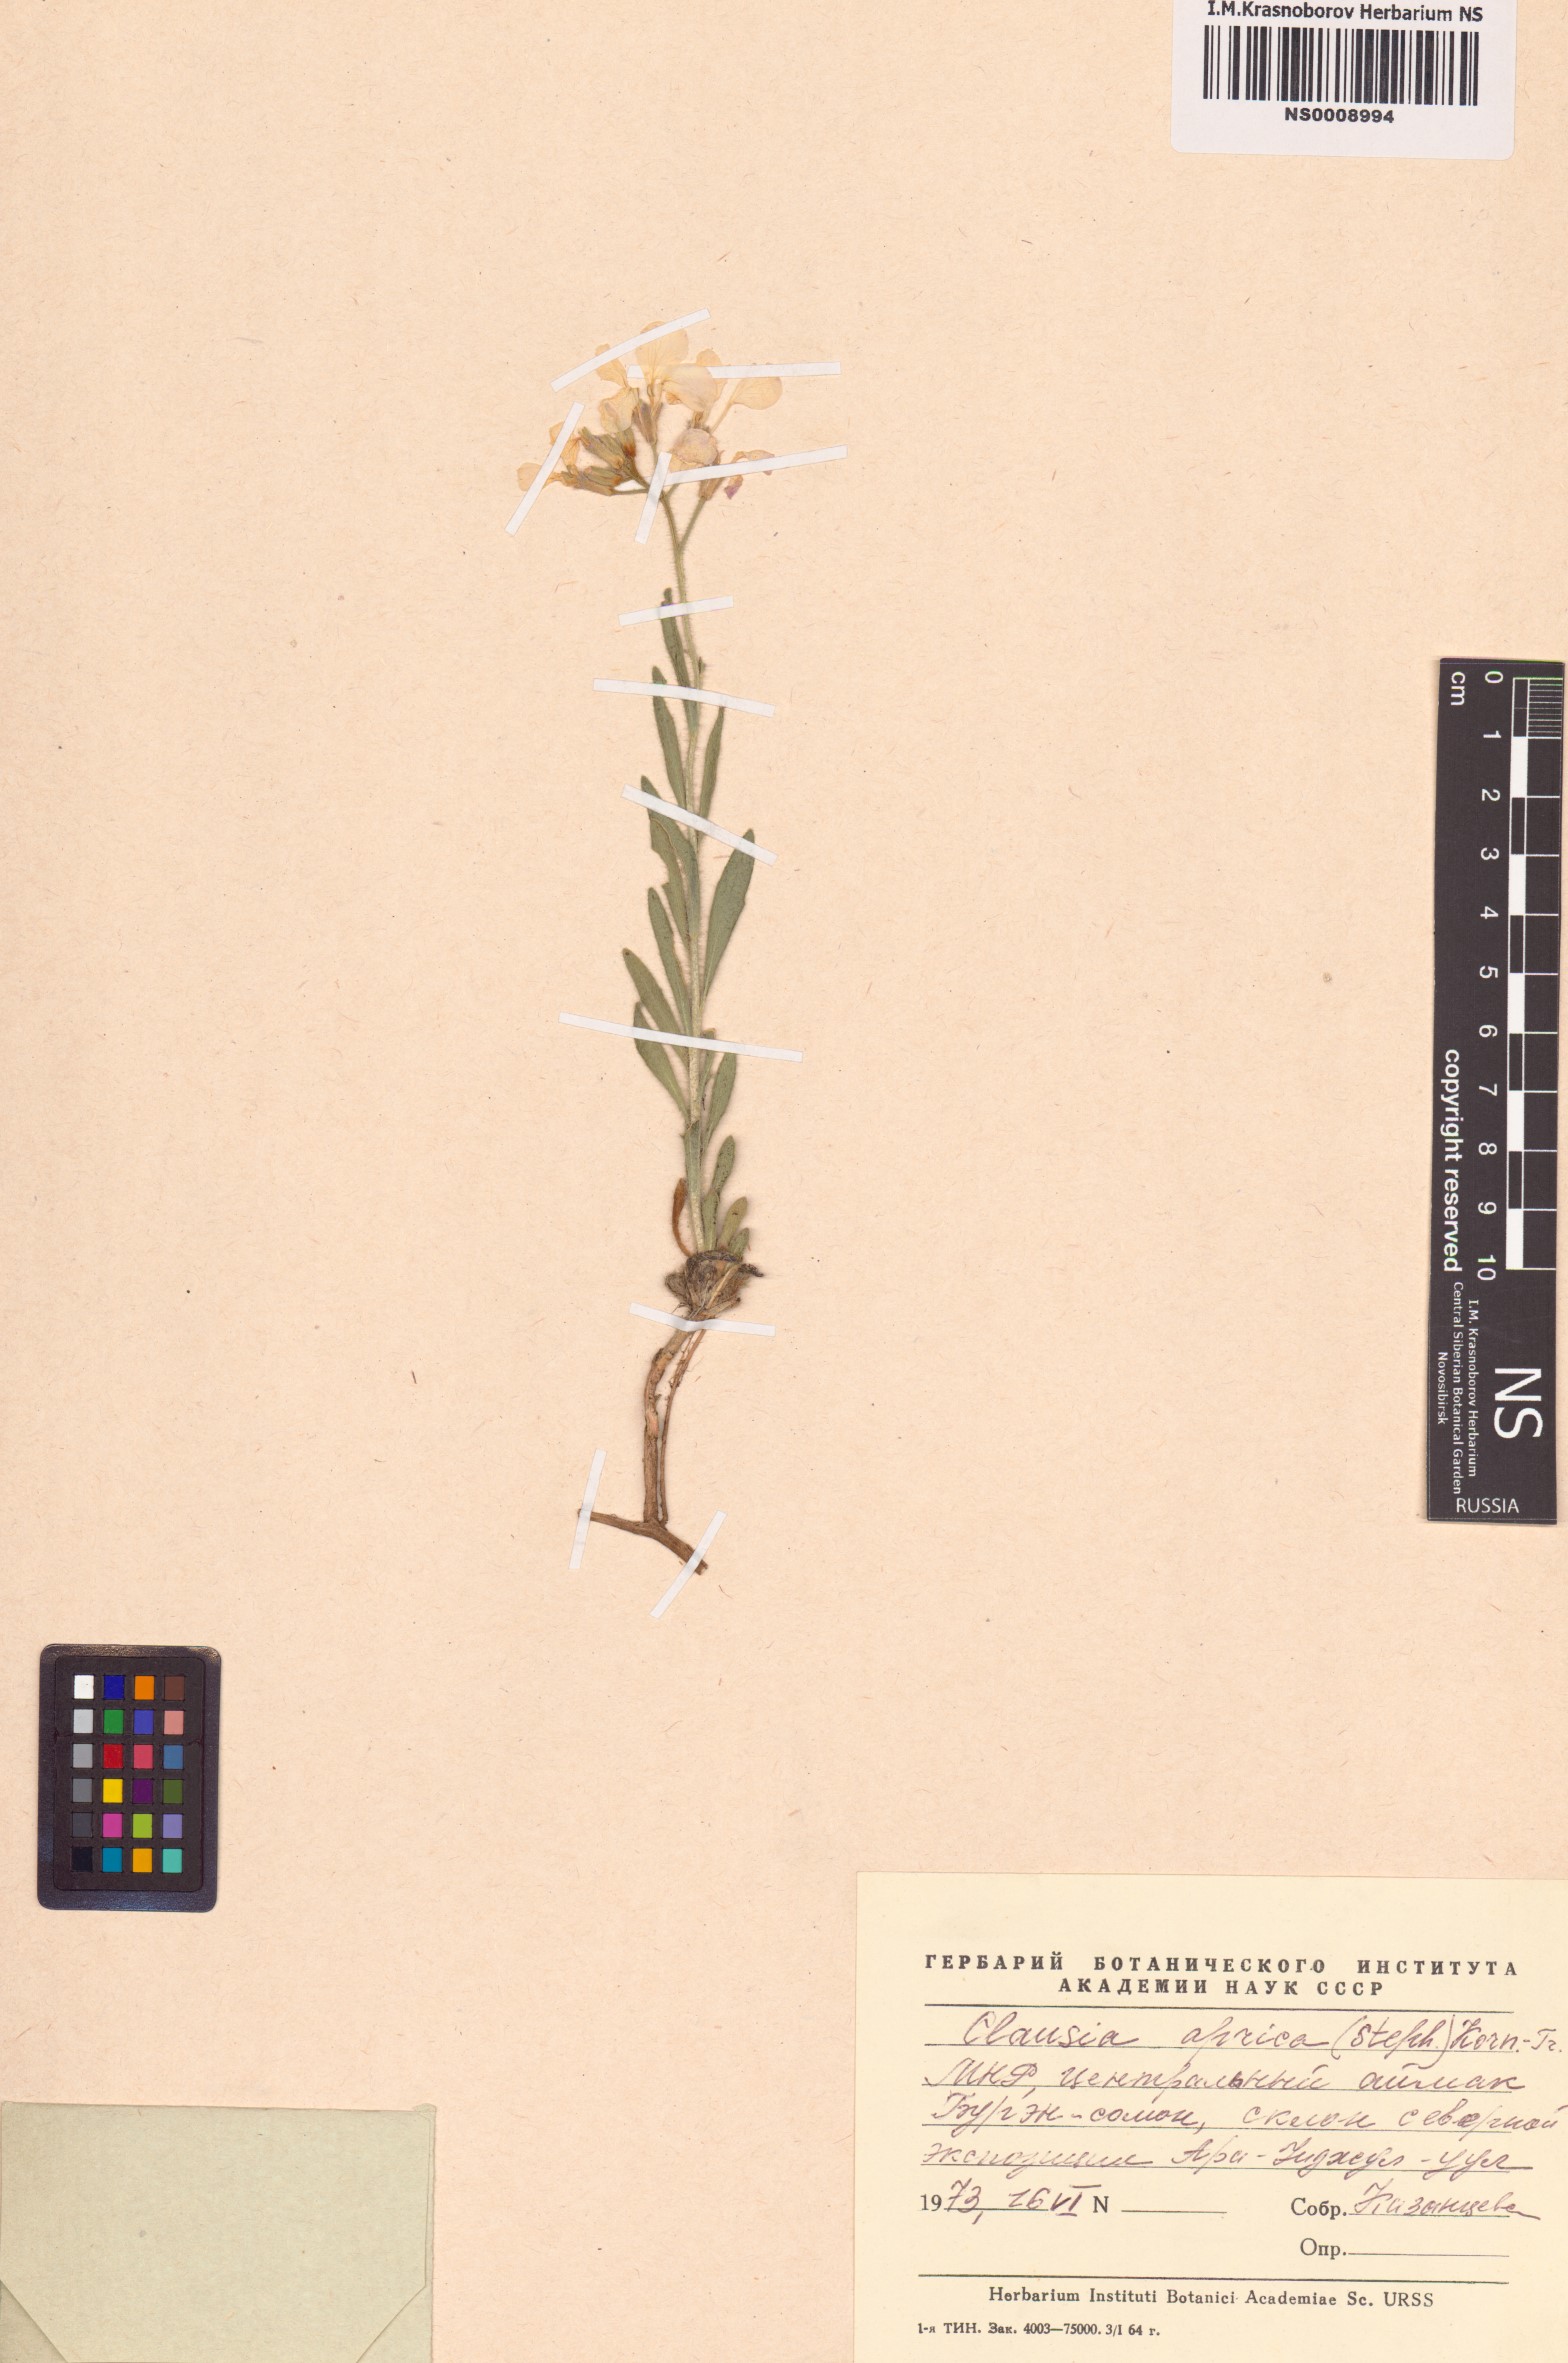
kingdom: Plantae
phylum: Tracheophyta
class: Magnoliopsida
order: Brassicales
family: Brassicaceae
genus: Clausia
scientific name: Clausia aprica
